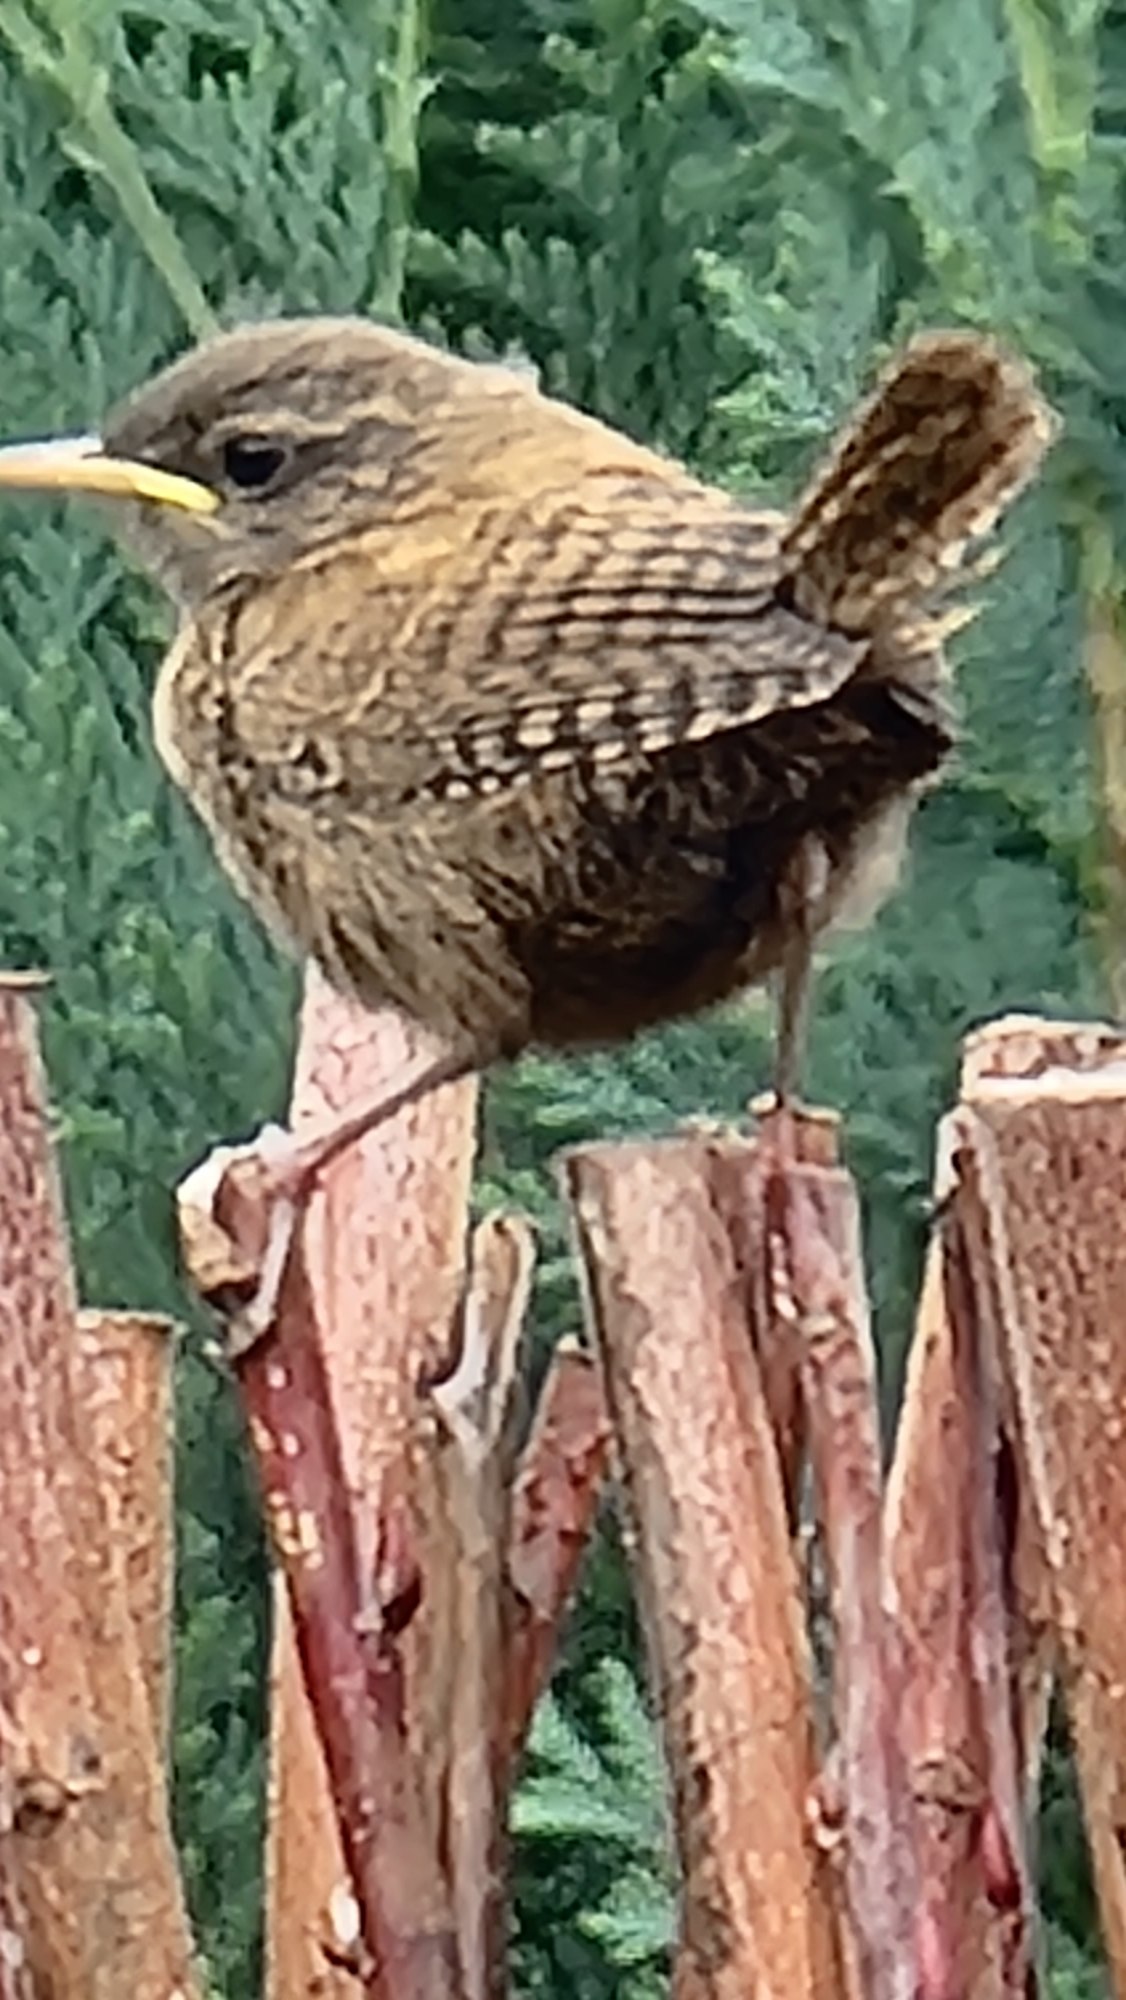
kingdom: Animalia
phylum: Chordata
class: Aves
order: Passeriformes
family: Troglodytidae
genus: Troglodytes
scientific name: Troglodytes troglodytes
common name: Gærdesmutte
